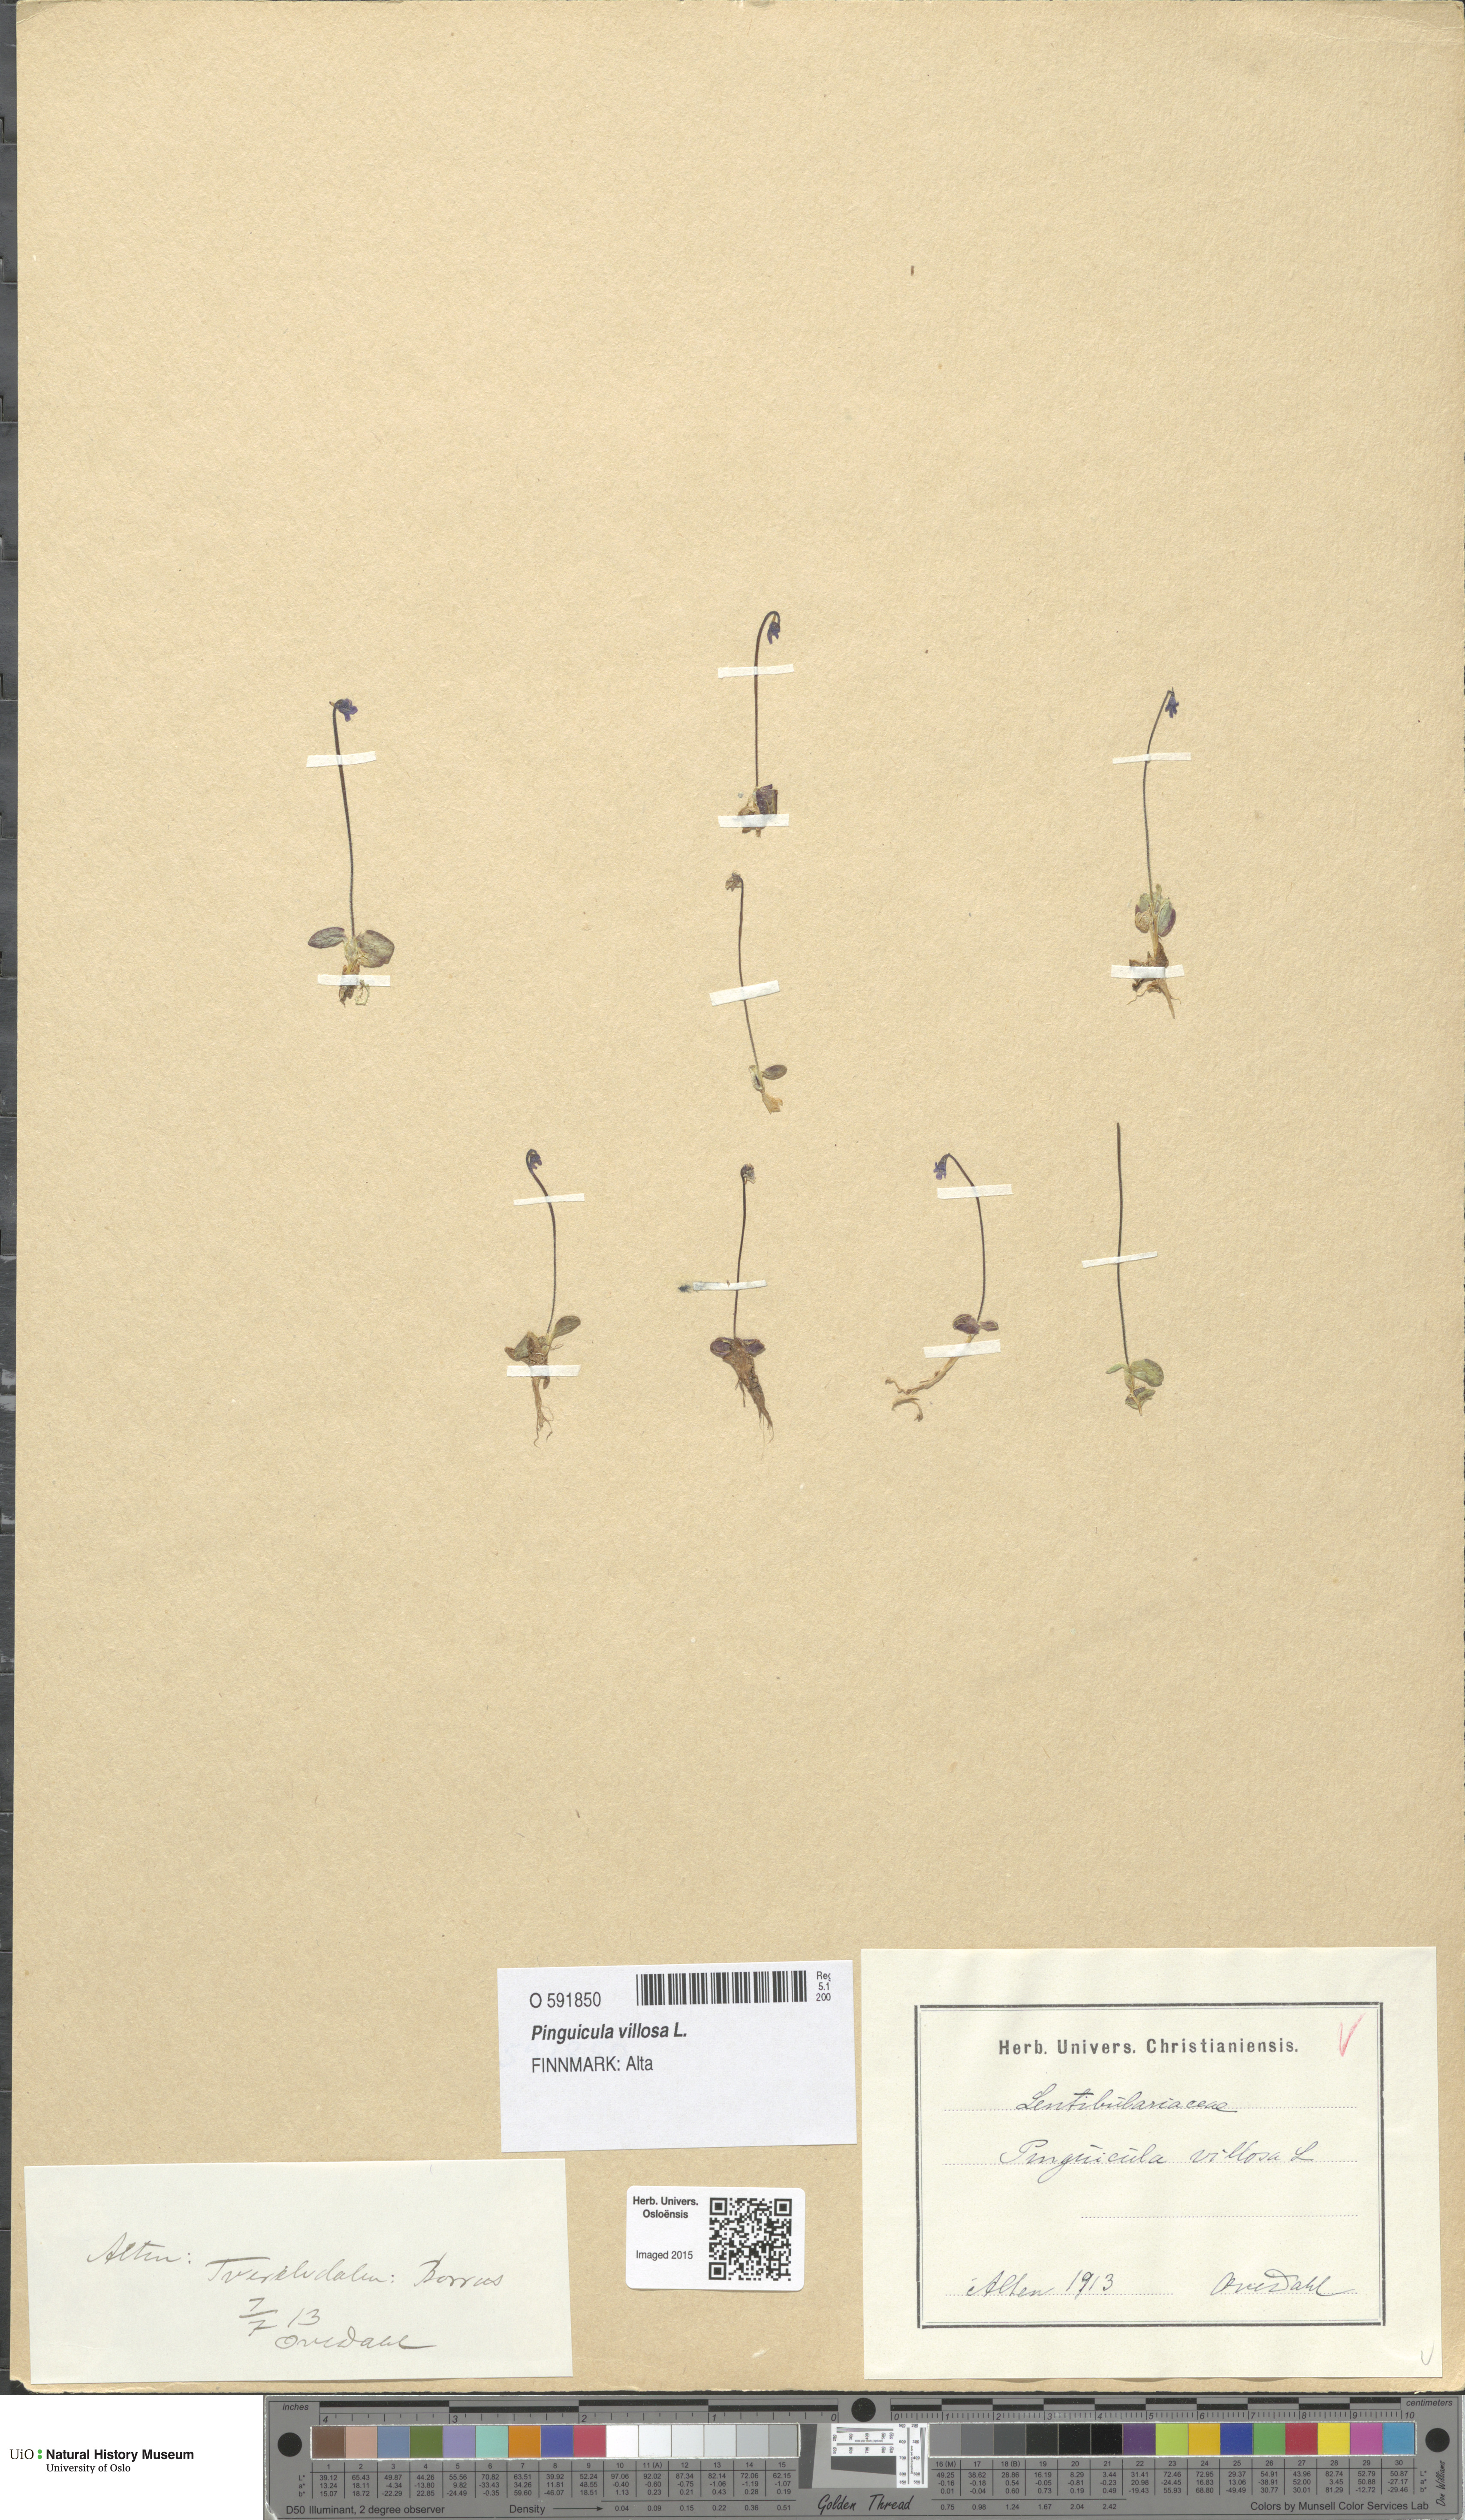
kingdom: Plantae
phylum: Tracheophyta
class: Magnoliopsida
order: Lamiales
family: Lentibulariaceae
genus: Pinguicula
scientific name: Pinguicula villosa
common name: Hairy butterwort
